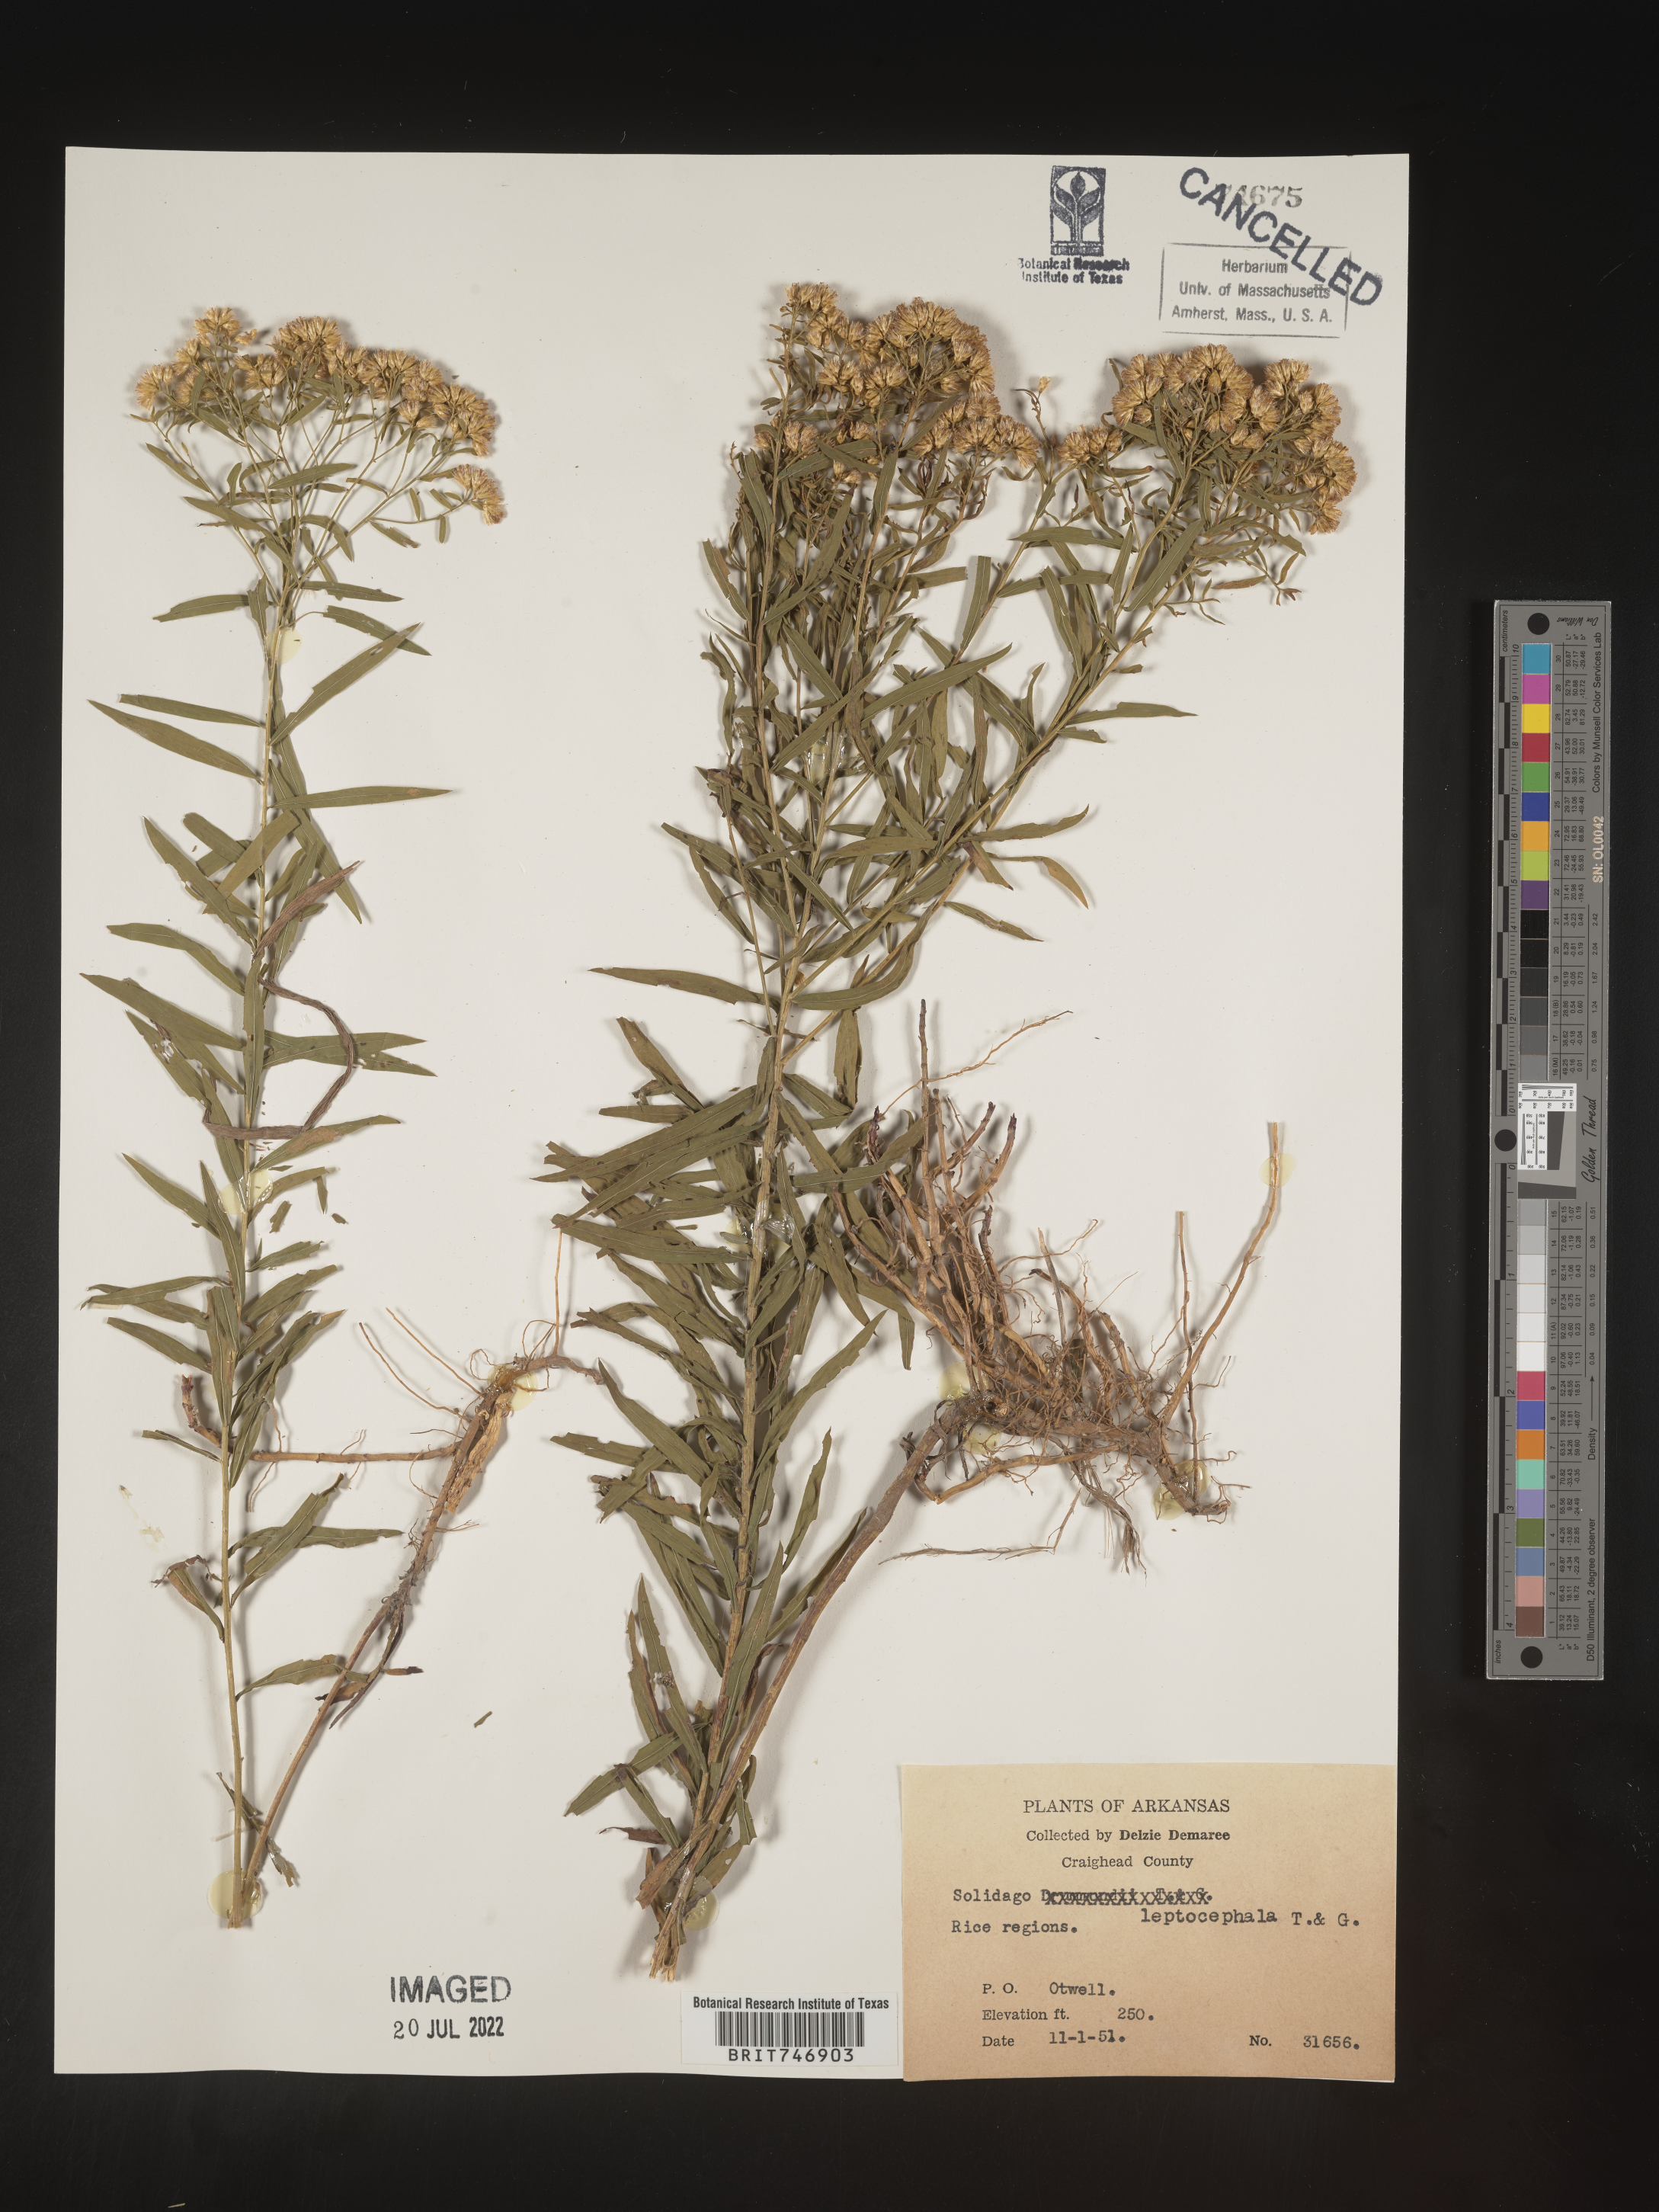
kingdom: Plantae
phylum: Tracheophyta
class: Magnoliopsida
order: Asterales
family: Asteraceae
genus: Euthamia
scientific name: Euthamia leptocephala
